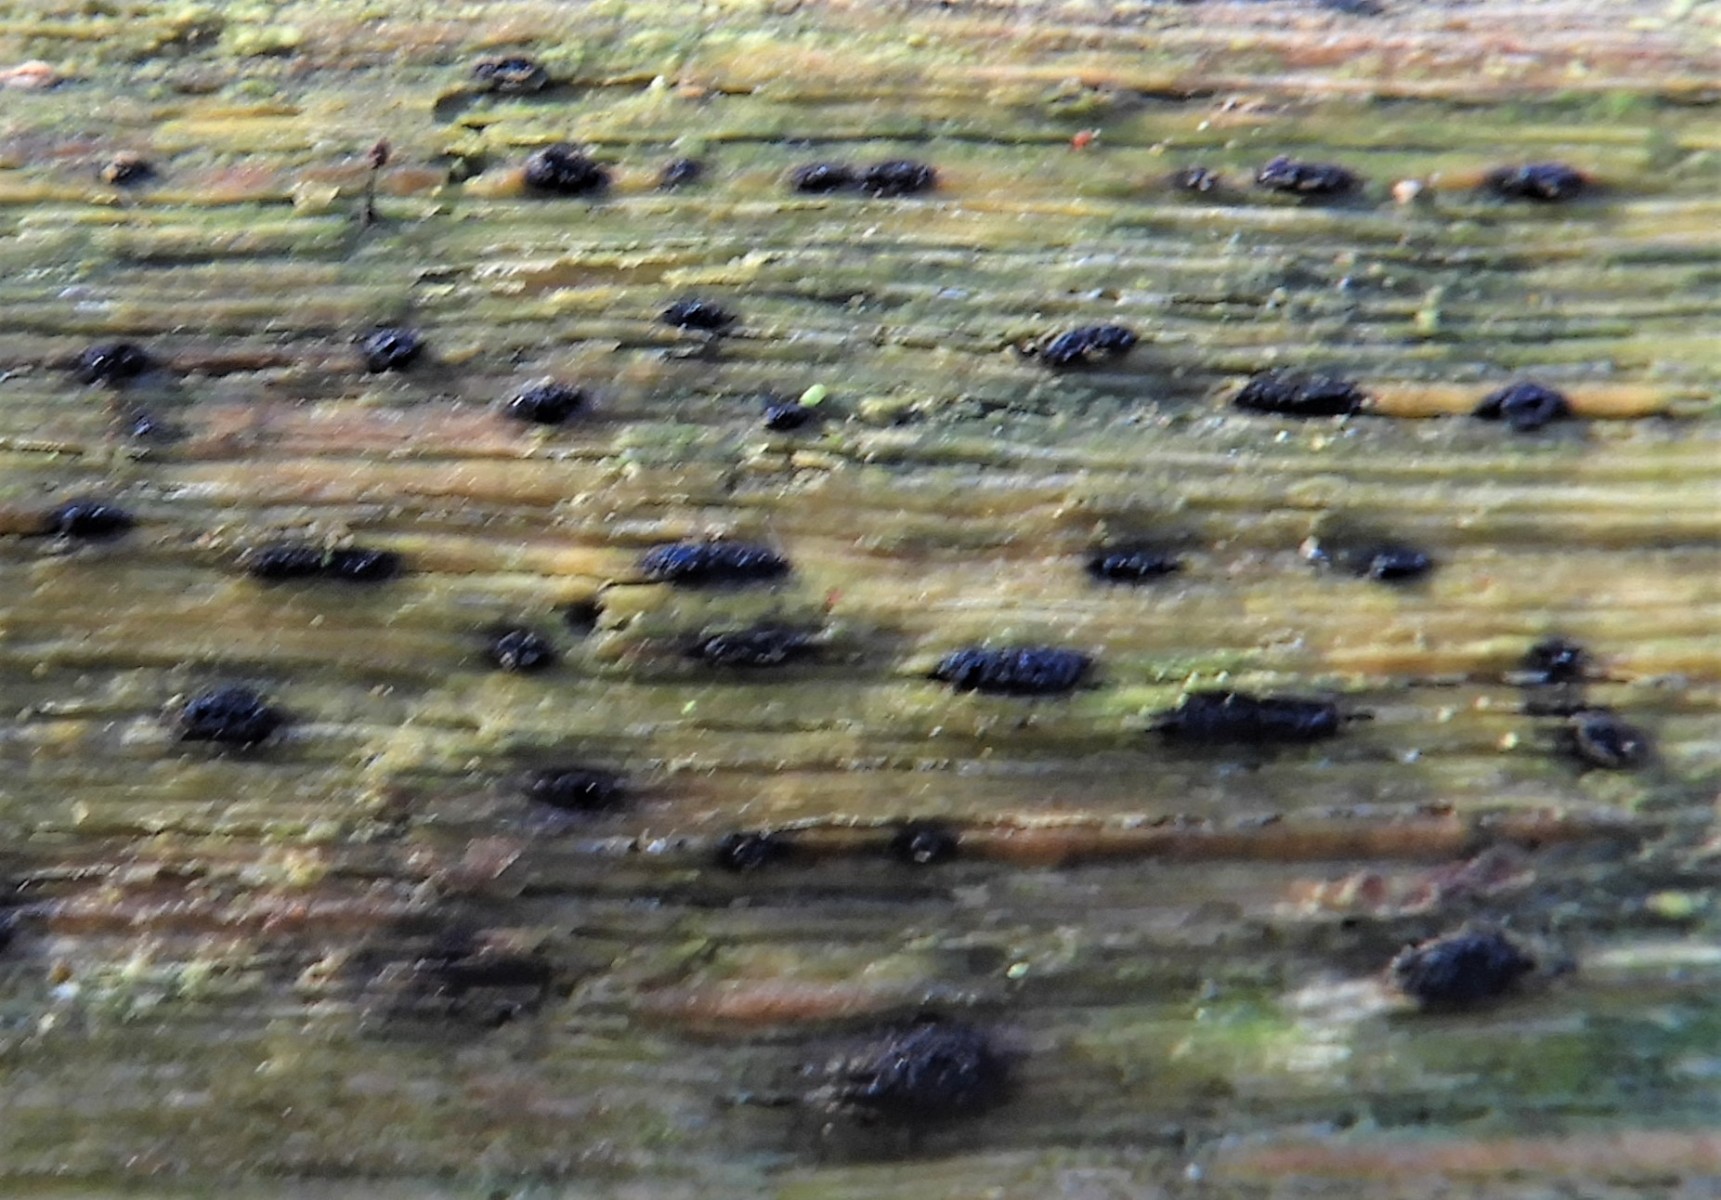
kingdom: Fungi
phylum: Ascomycota
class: Sordariomycetes
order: Boliniales
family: Boliniaceae
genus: Camaropella
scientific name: Camaropella lutea
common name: gulsplint-kulsnegl
